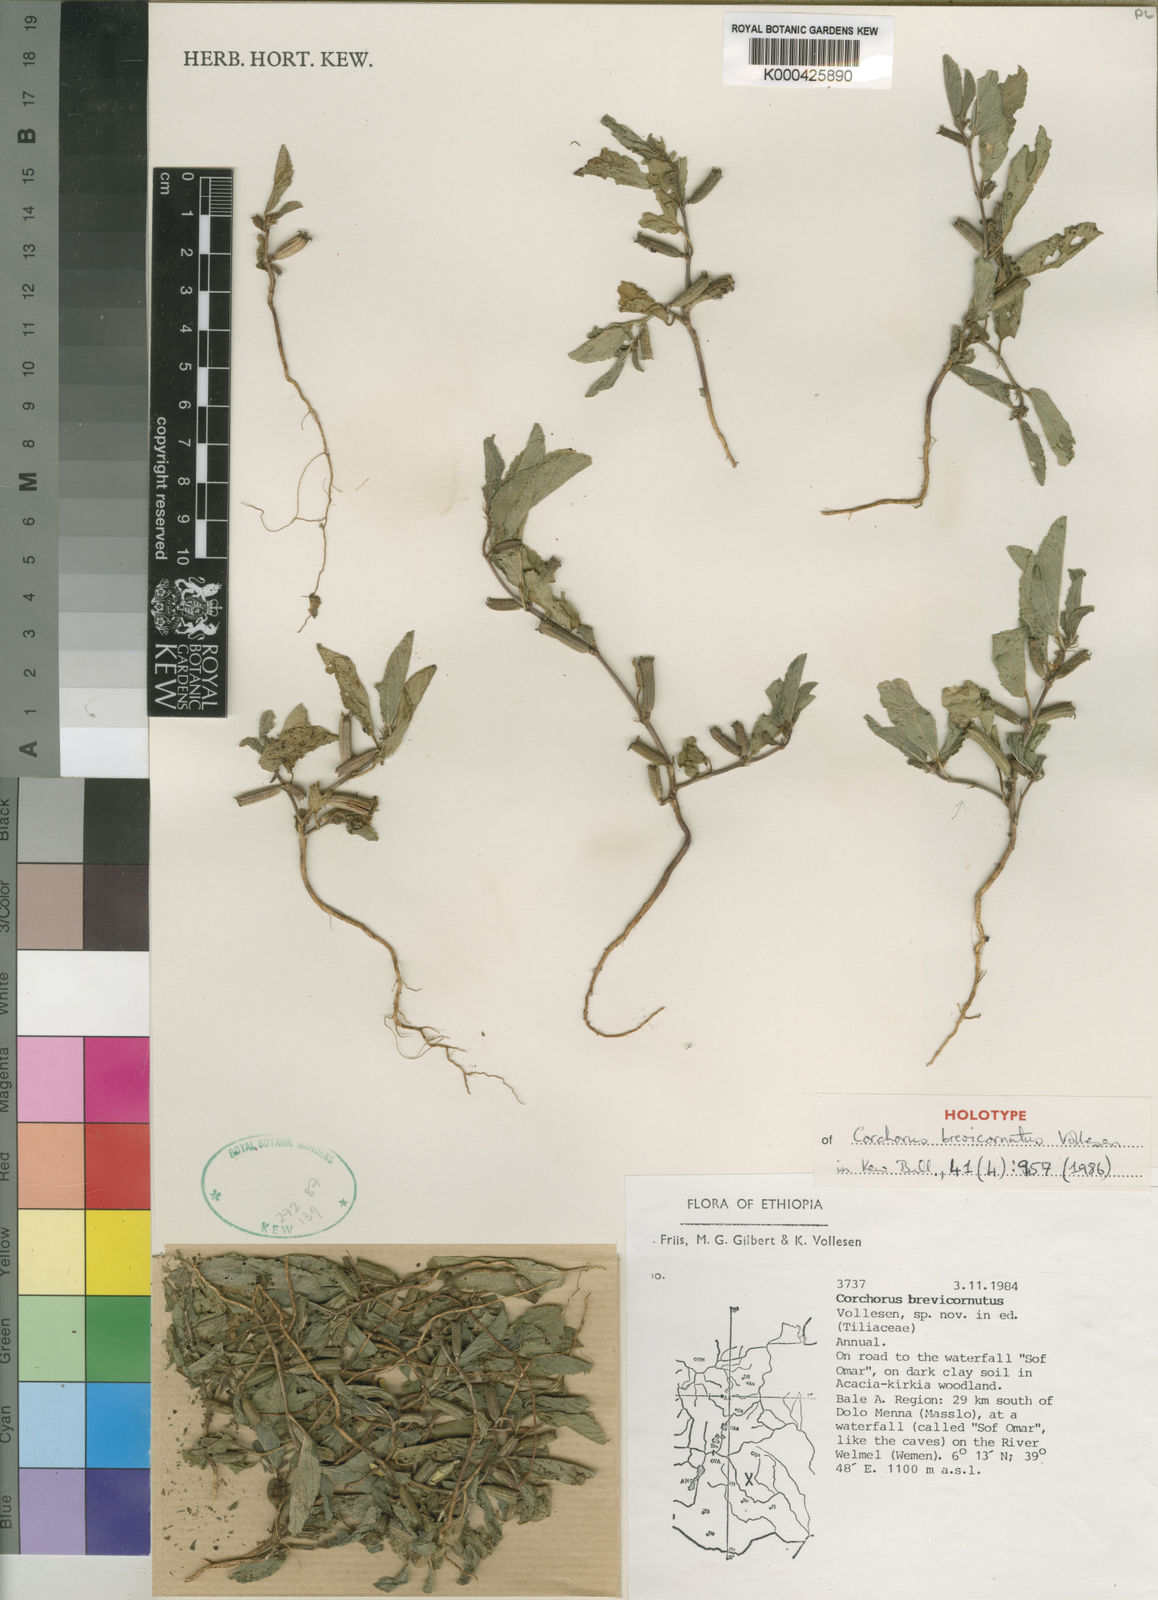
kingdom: Plantae
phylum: Tracheophyta
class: Magnoliopsida
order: Malvales
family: Malvaceae
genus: Corchorus
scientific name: Corchorus brevicornutus
